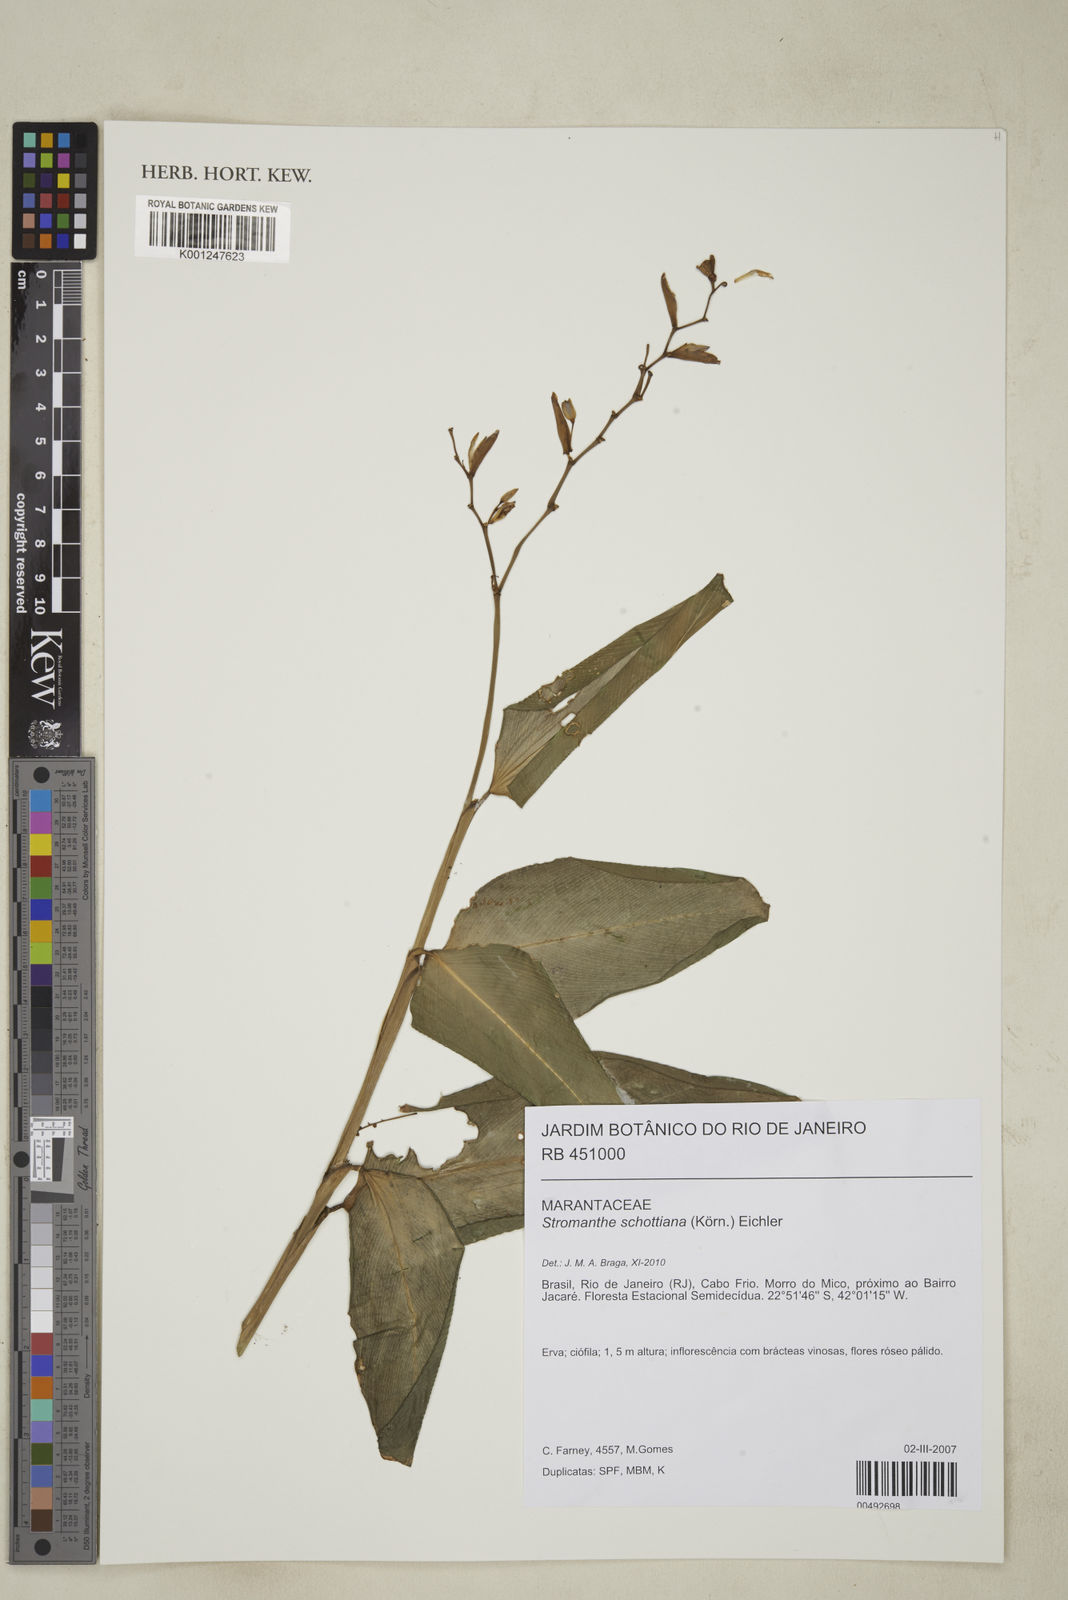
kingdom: Plantae
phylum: Tracheophyta
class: Liliopsida
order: Zingiberales
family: Marantaceae
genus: Stromanthe
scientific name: Stromanthe schottiana
